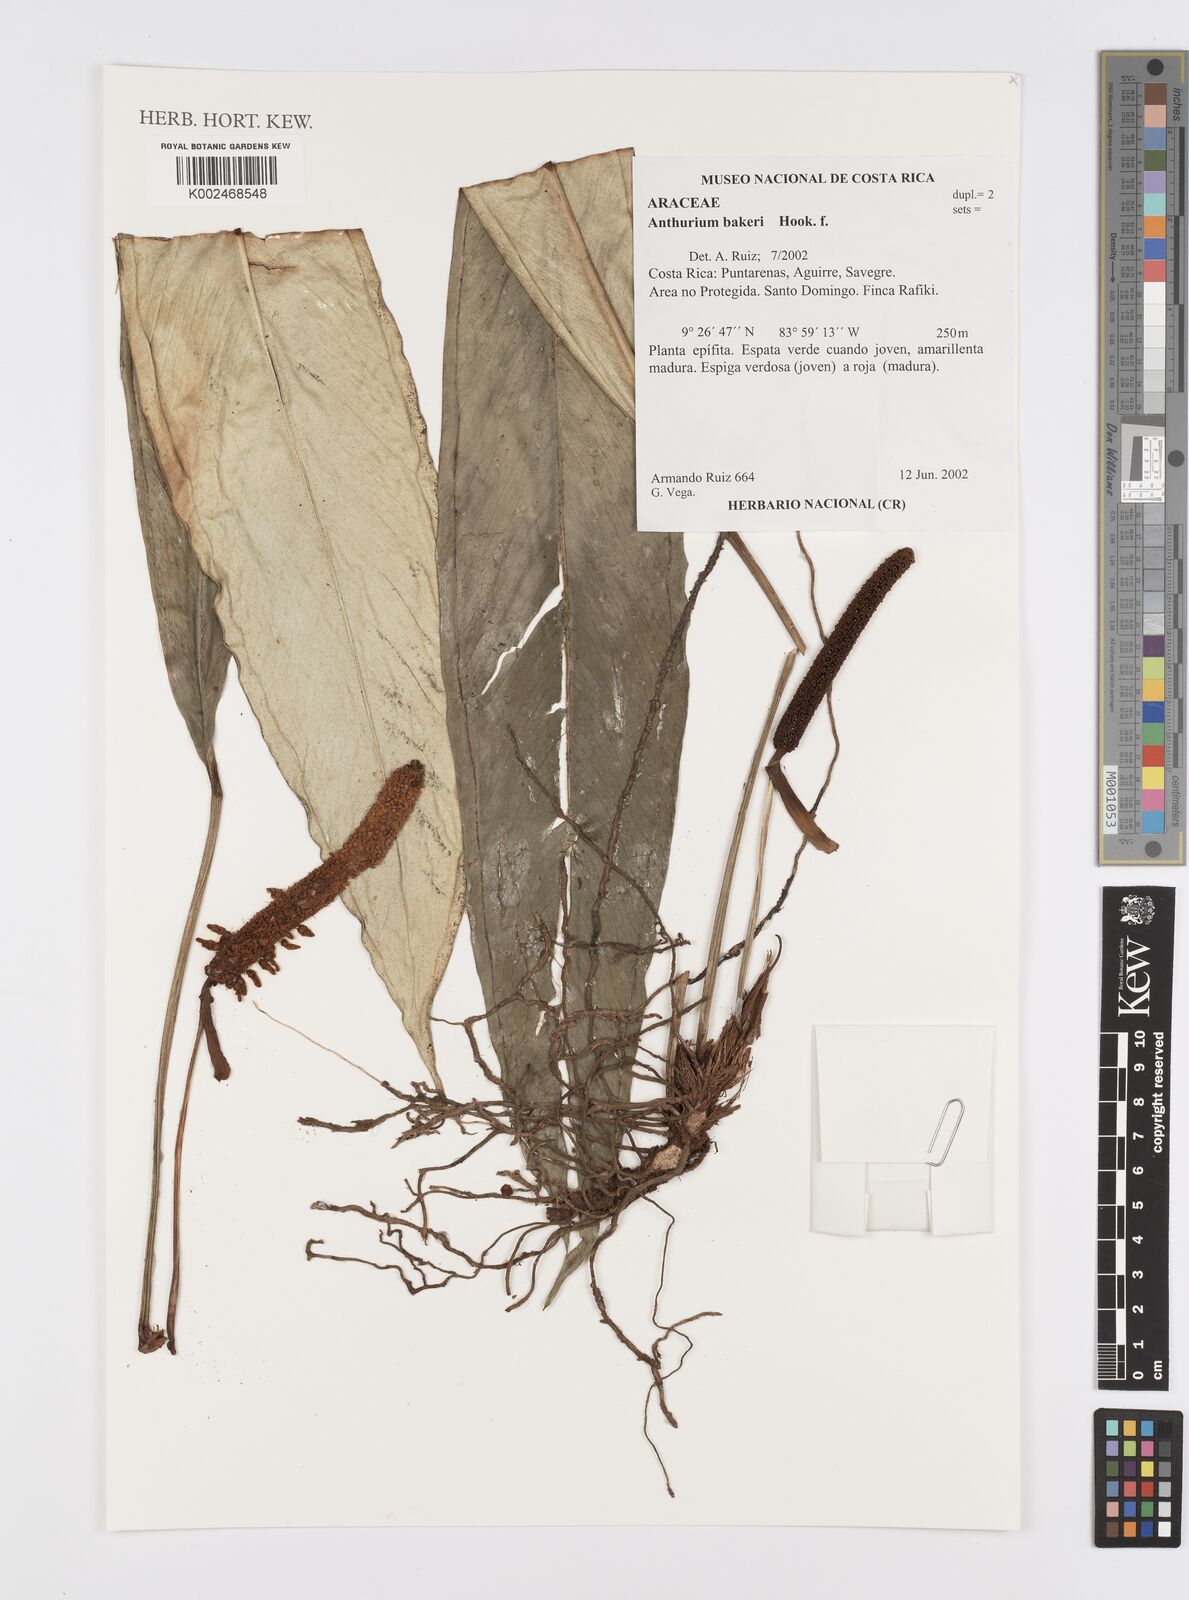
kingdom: Plantae
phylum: Tracheophyta
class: Liliopsida
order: Alismatales
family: Araceae
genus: Anthurium
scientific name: Anthurium bakeri
